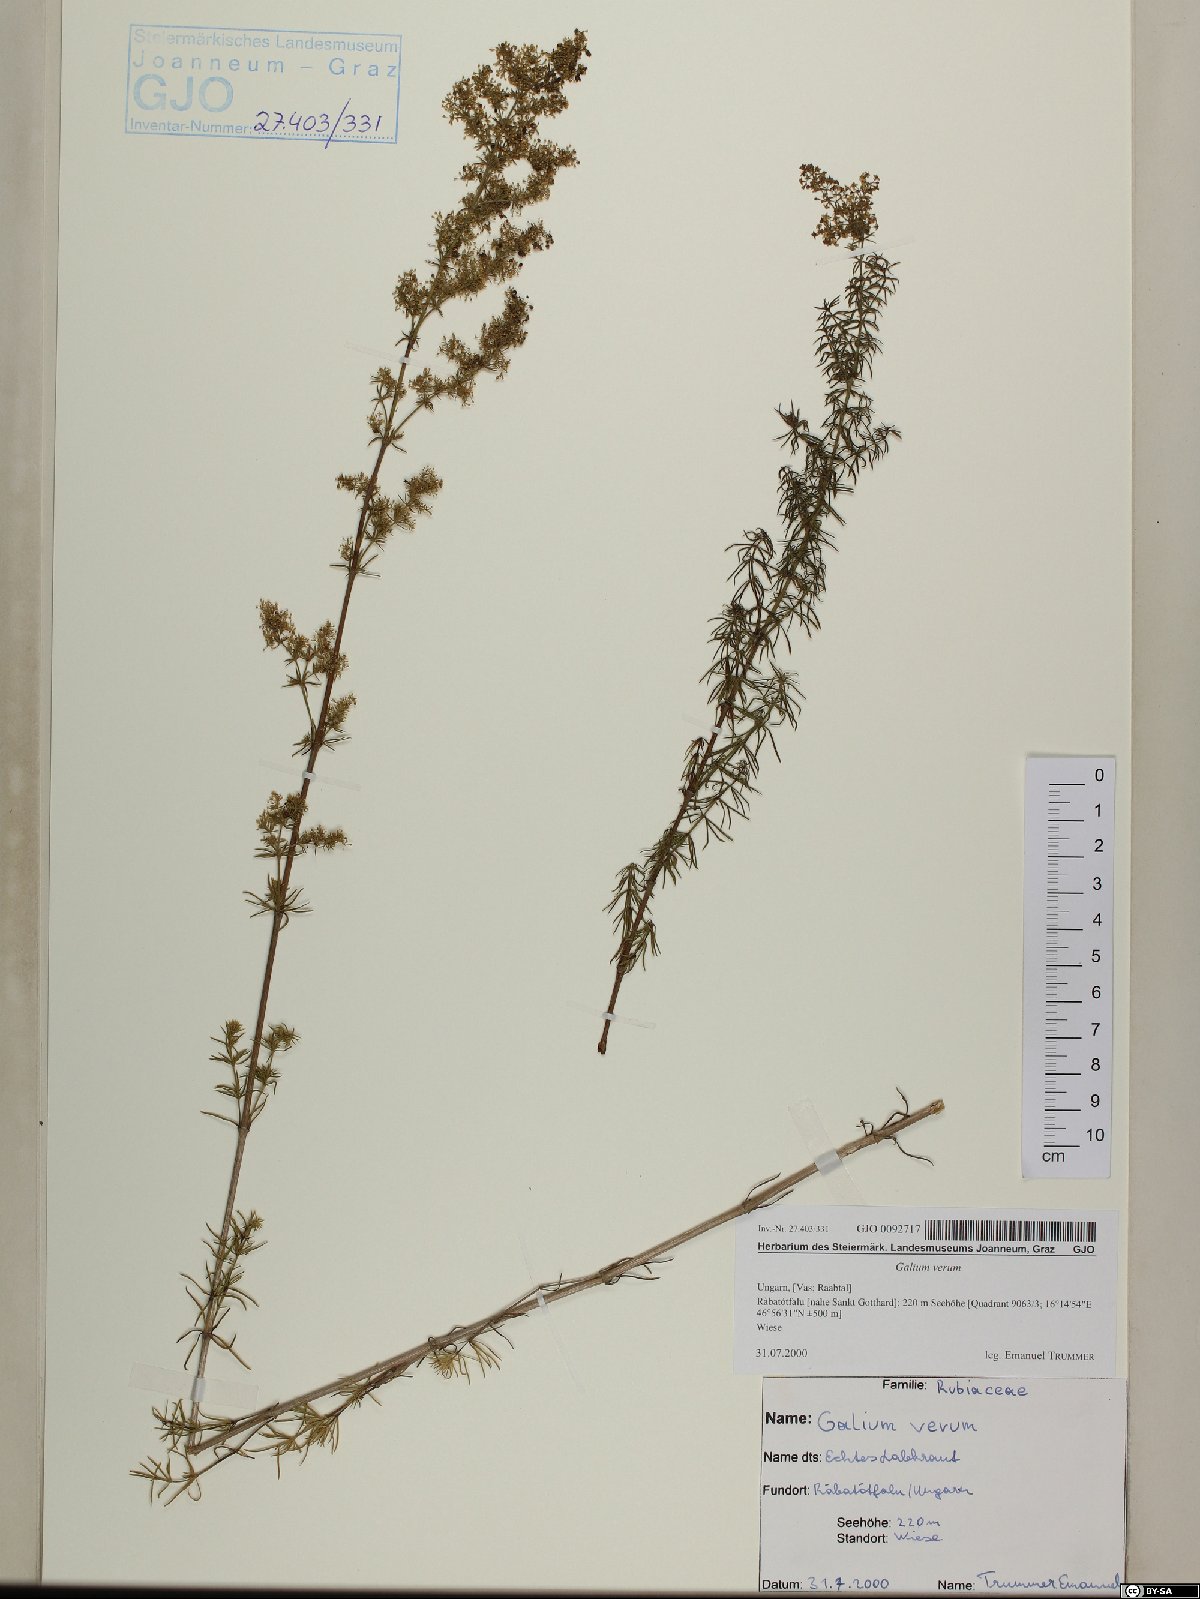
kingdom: Plantae
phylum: Tracheophyta
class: Magnoliopsida
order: Gentianales
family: Rubiaceae
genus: Galium
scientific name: Galium verum
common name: Lady's bedstraw
